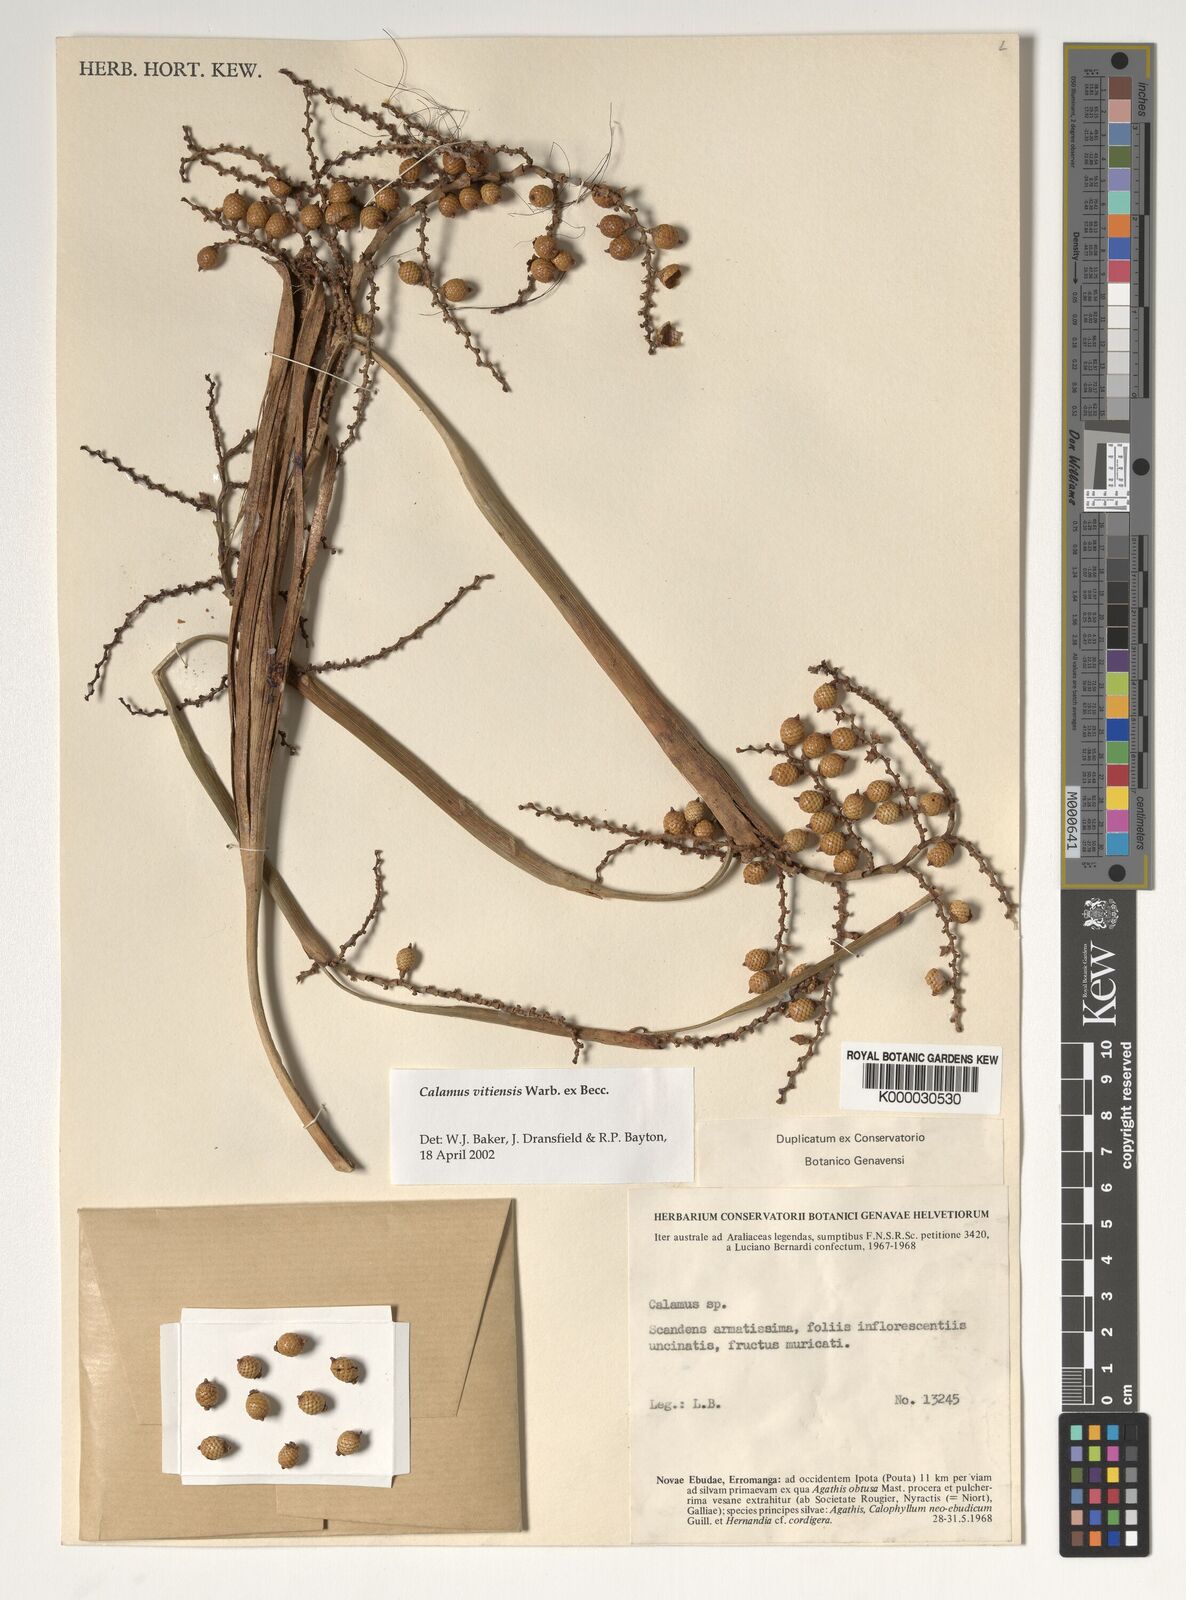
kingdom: Plantae
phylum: Tracheophyta
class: Liliopsida
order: Arecales
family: Arecaceae
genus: Calamus
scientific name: Calamus vestitus
